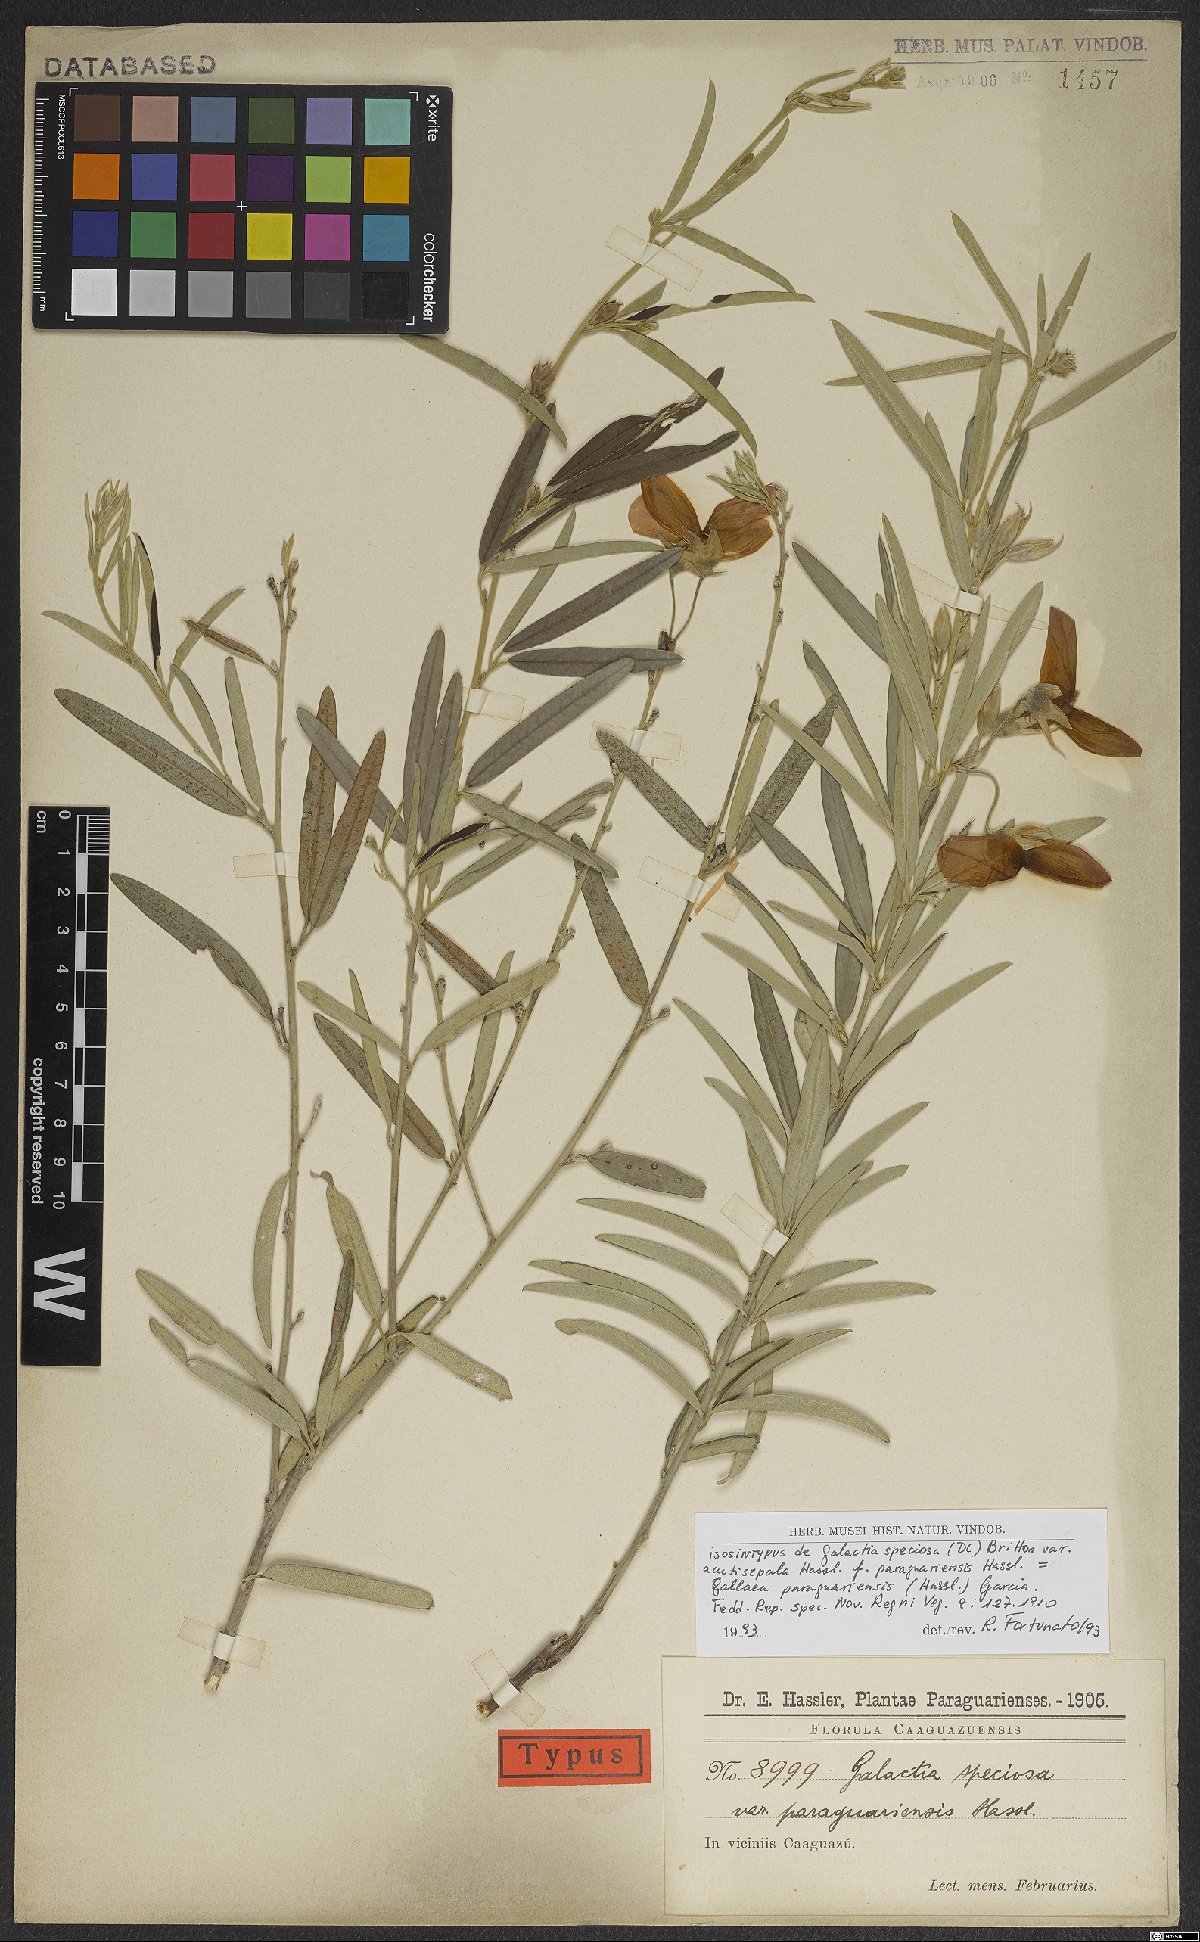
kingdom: Plantae
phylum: Tracheophyta
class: Magnoliopsida
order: Fabales
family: Fabaceae
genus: Collaea
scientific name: Collaea speciosa
